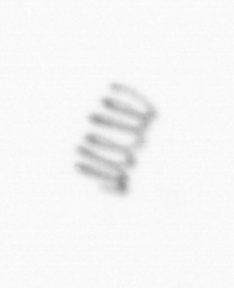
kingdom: Chromista
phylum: Ochrophyta
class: Bacillariophyceae
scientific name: Bacillariophyceae
